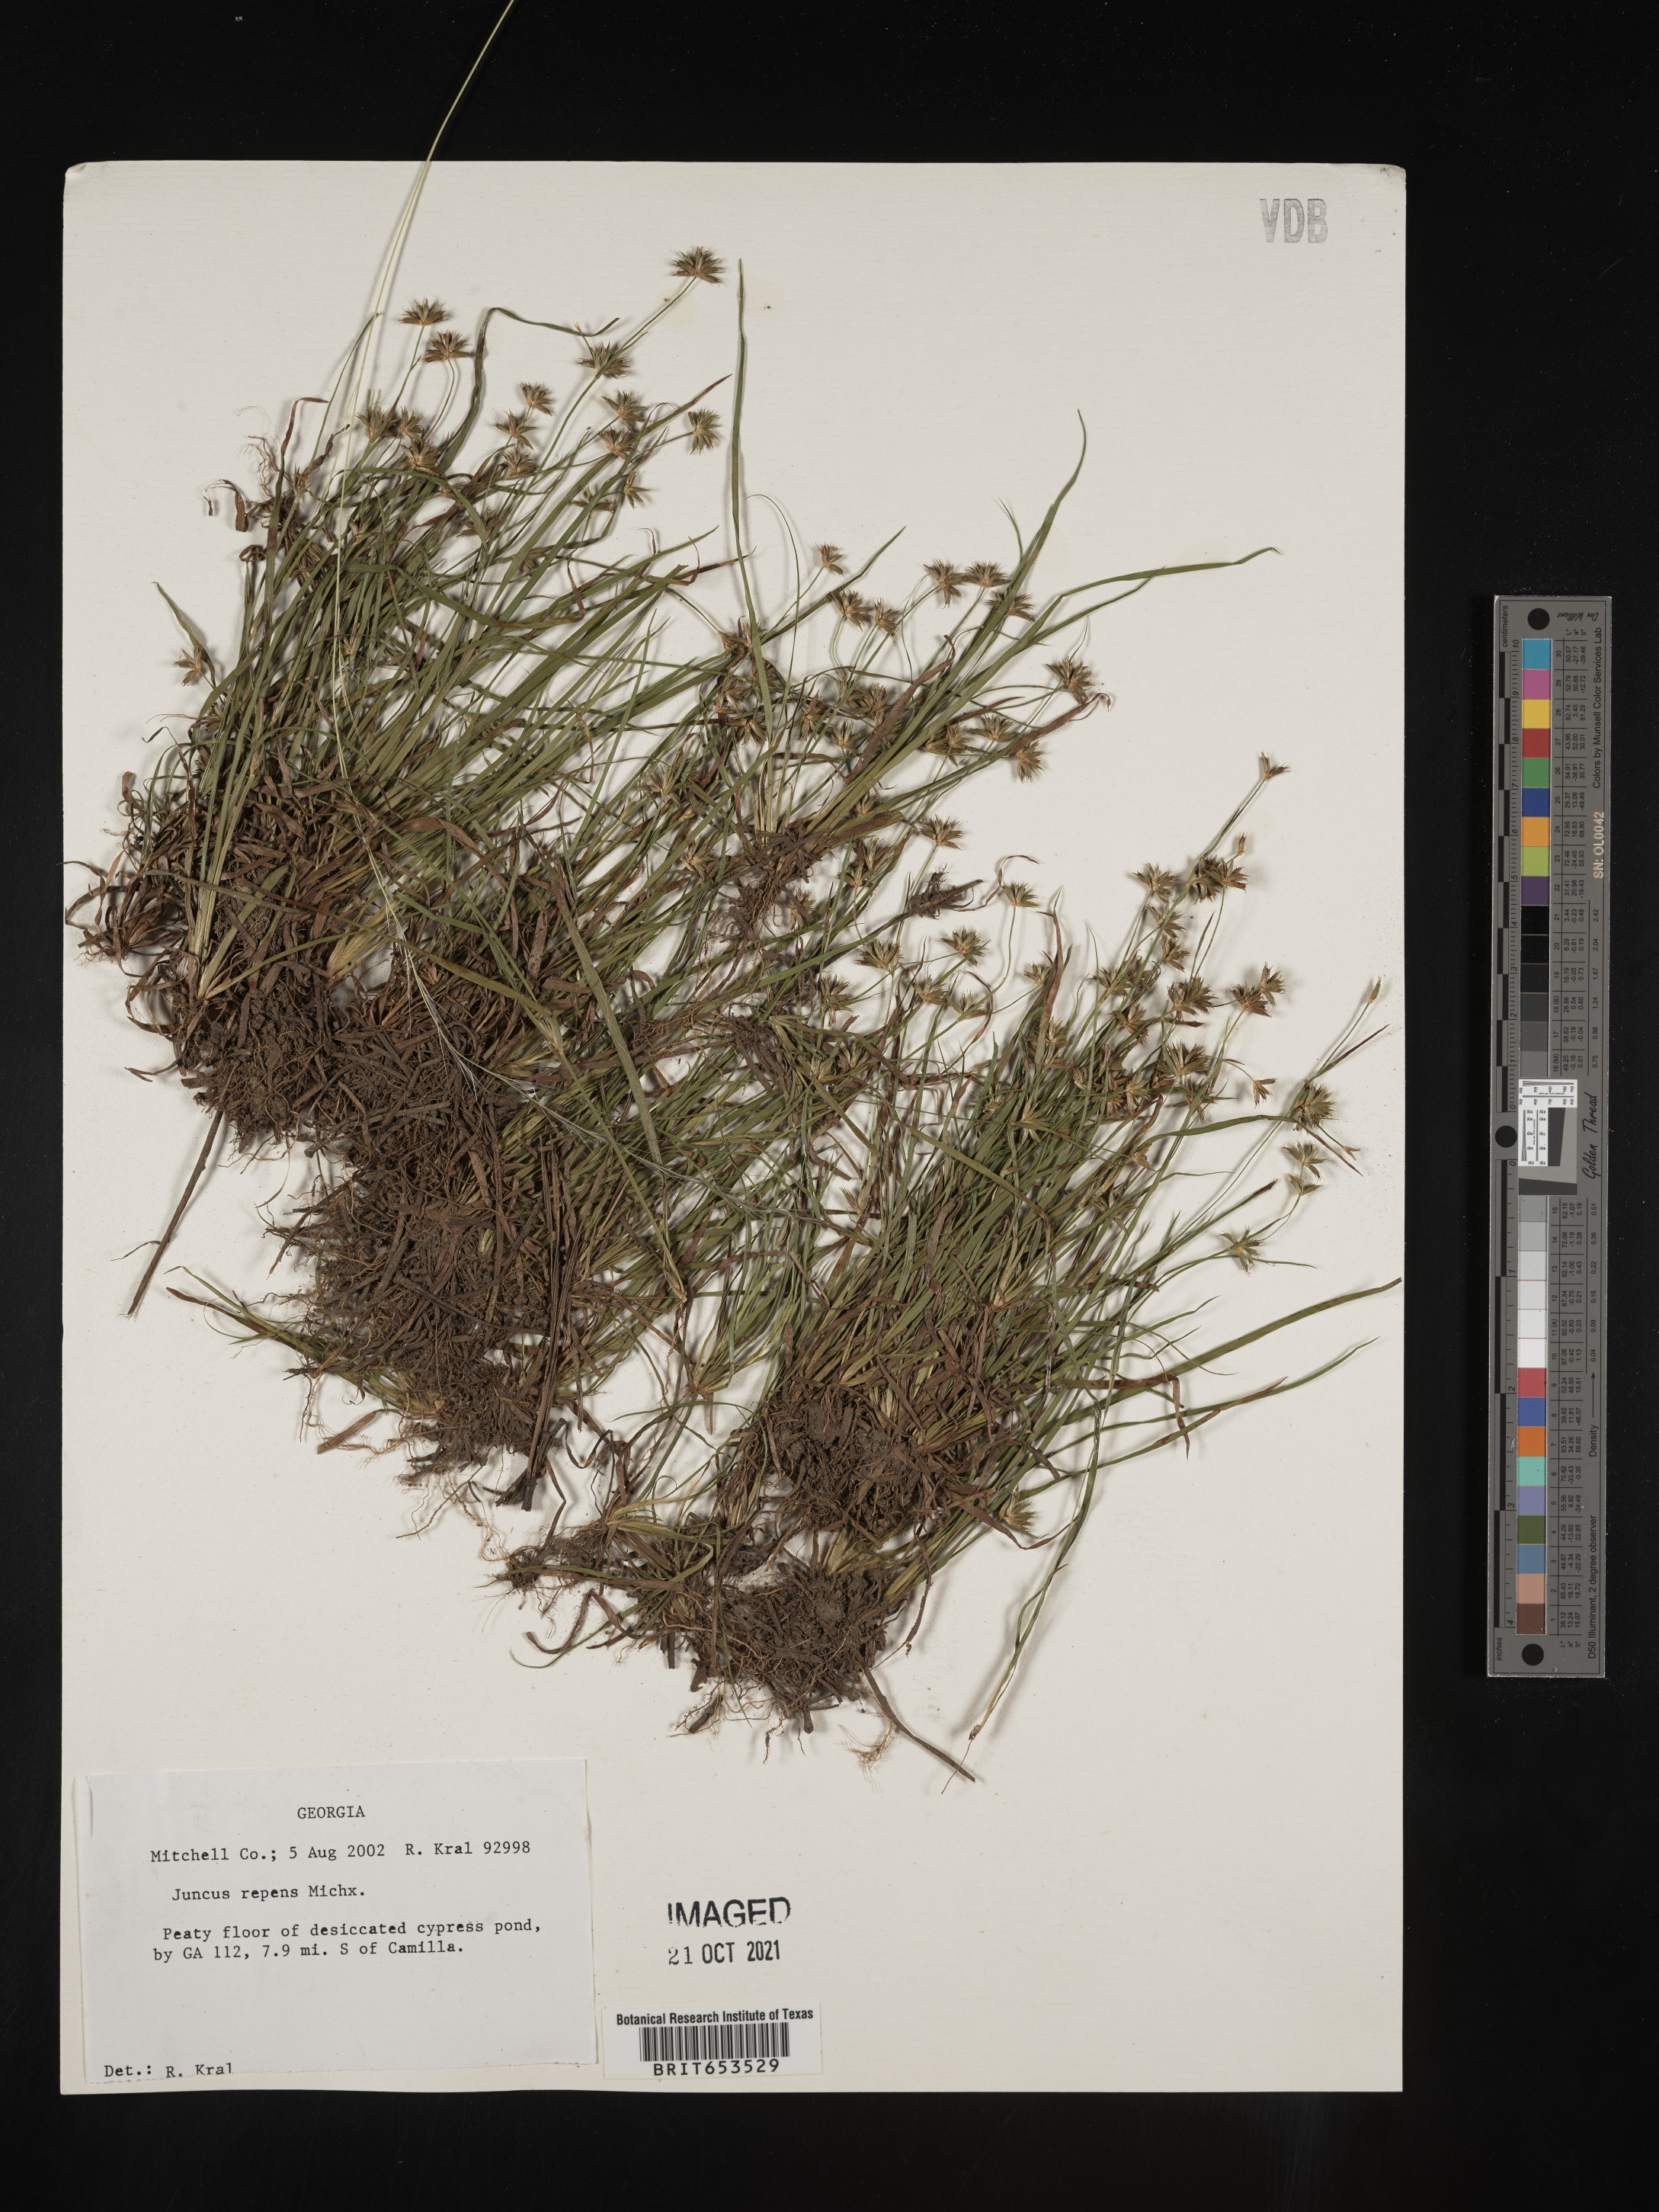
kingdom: Plantae
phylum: Tracheophyta
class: Liliopsida
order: Poales
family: Juncaceae
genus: Juncus
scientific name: Juncus repens
